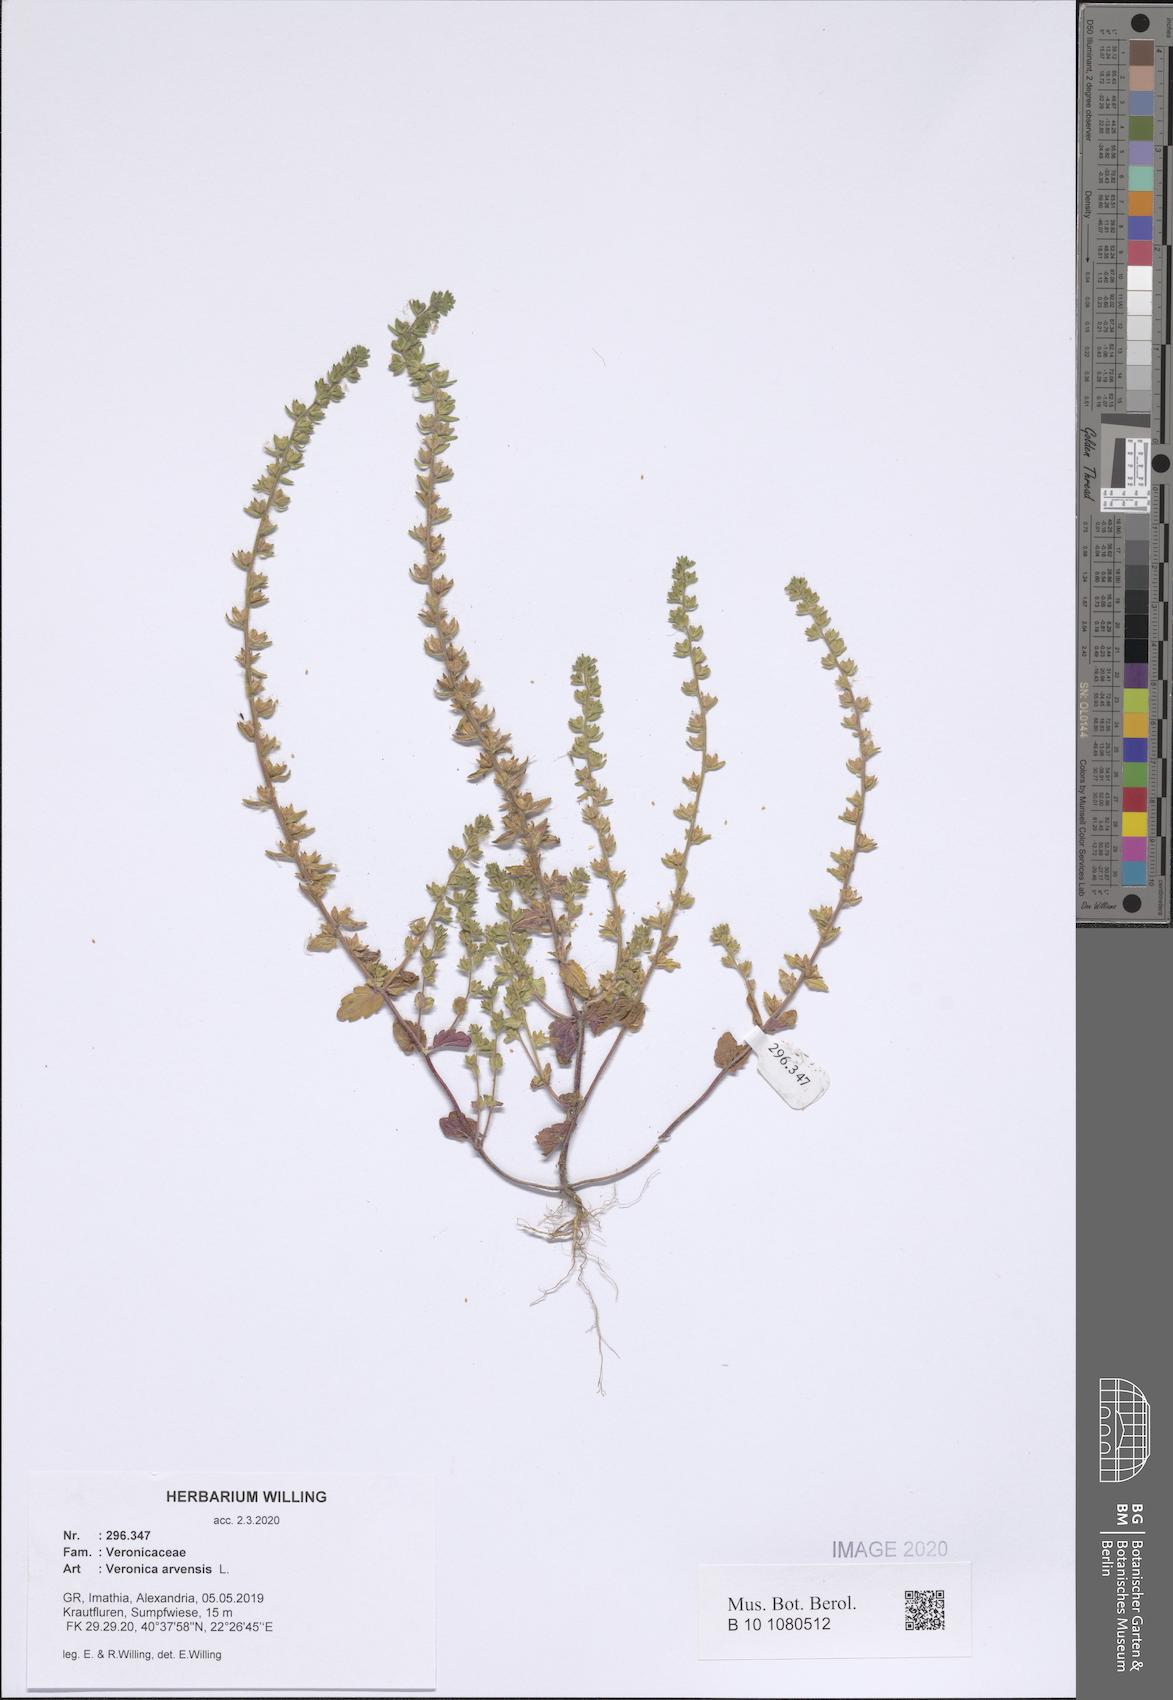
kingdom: Plantae
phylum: Tracheophyta
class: Magnoliopsida
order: Lamiales
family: Plantaginaceae
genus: Veronica
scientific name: Veronica arvensis
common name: Corn speedwell
